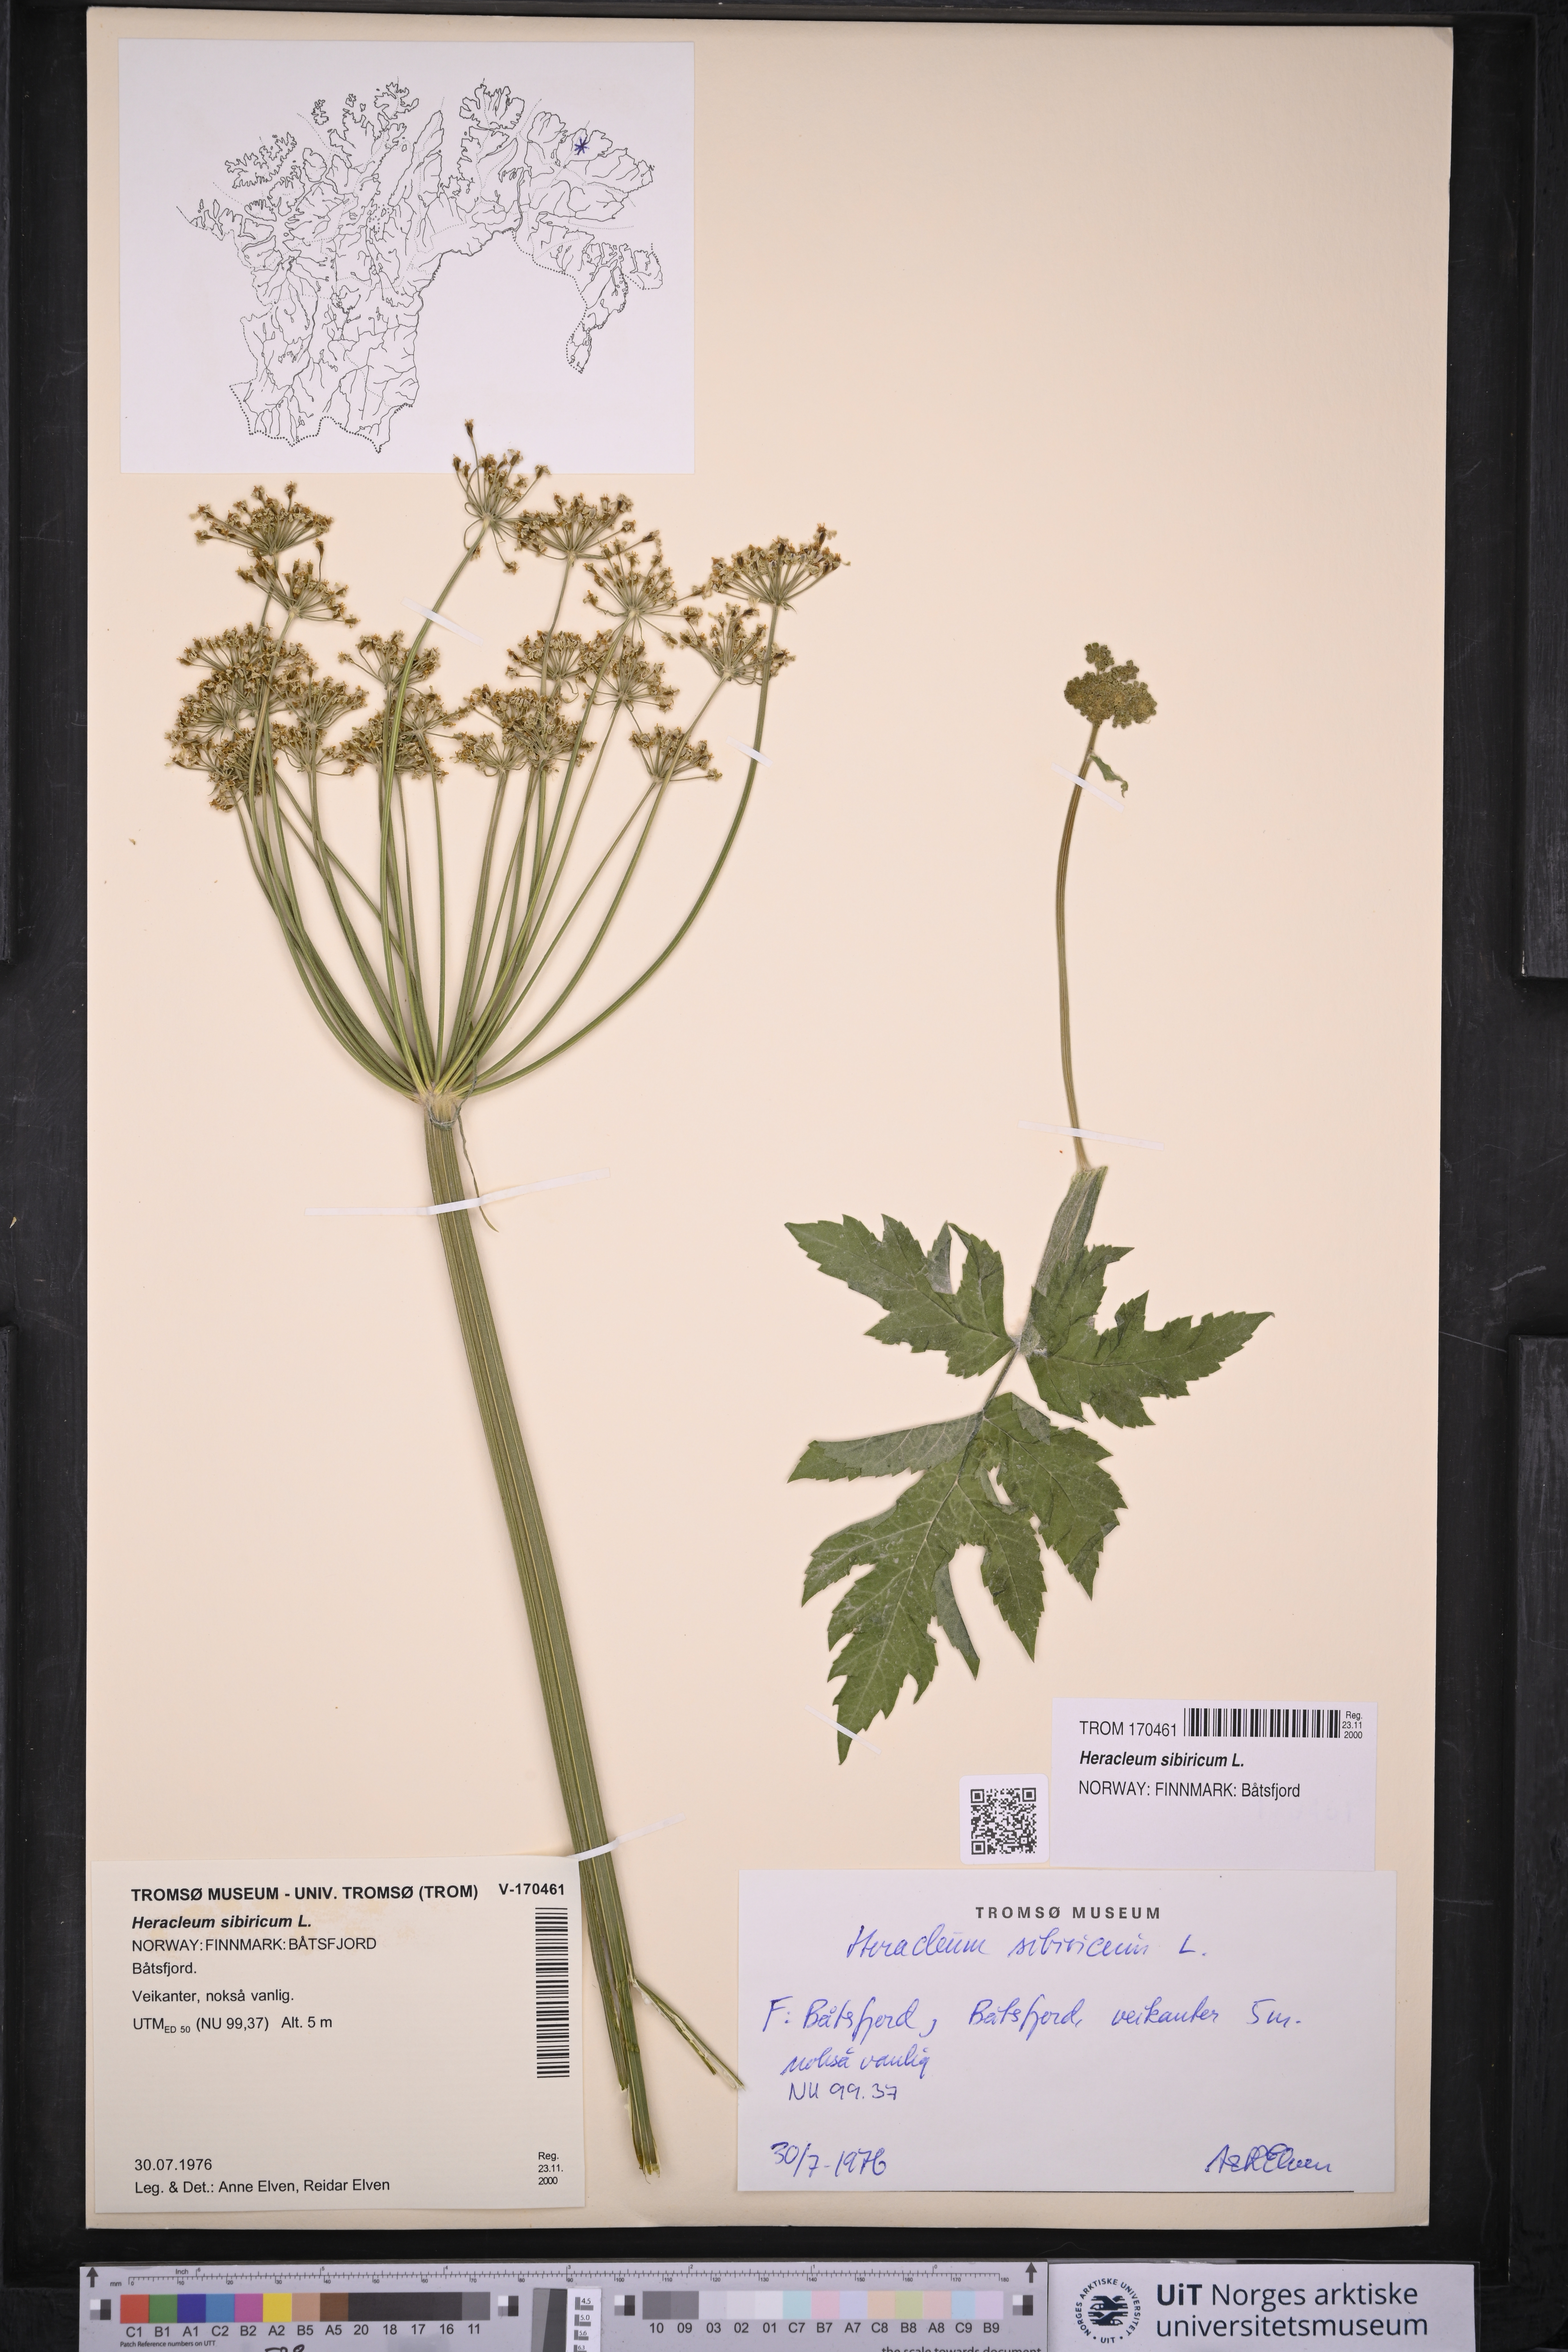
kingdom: Plantae
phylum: Tracheophyta
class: Magnoliopsida
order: Apiales
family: Apiaceae
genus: Heracleum
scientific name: Heracleum sphondylium
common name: Hogweed
